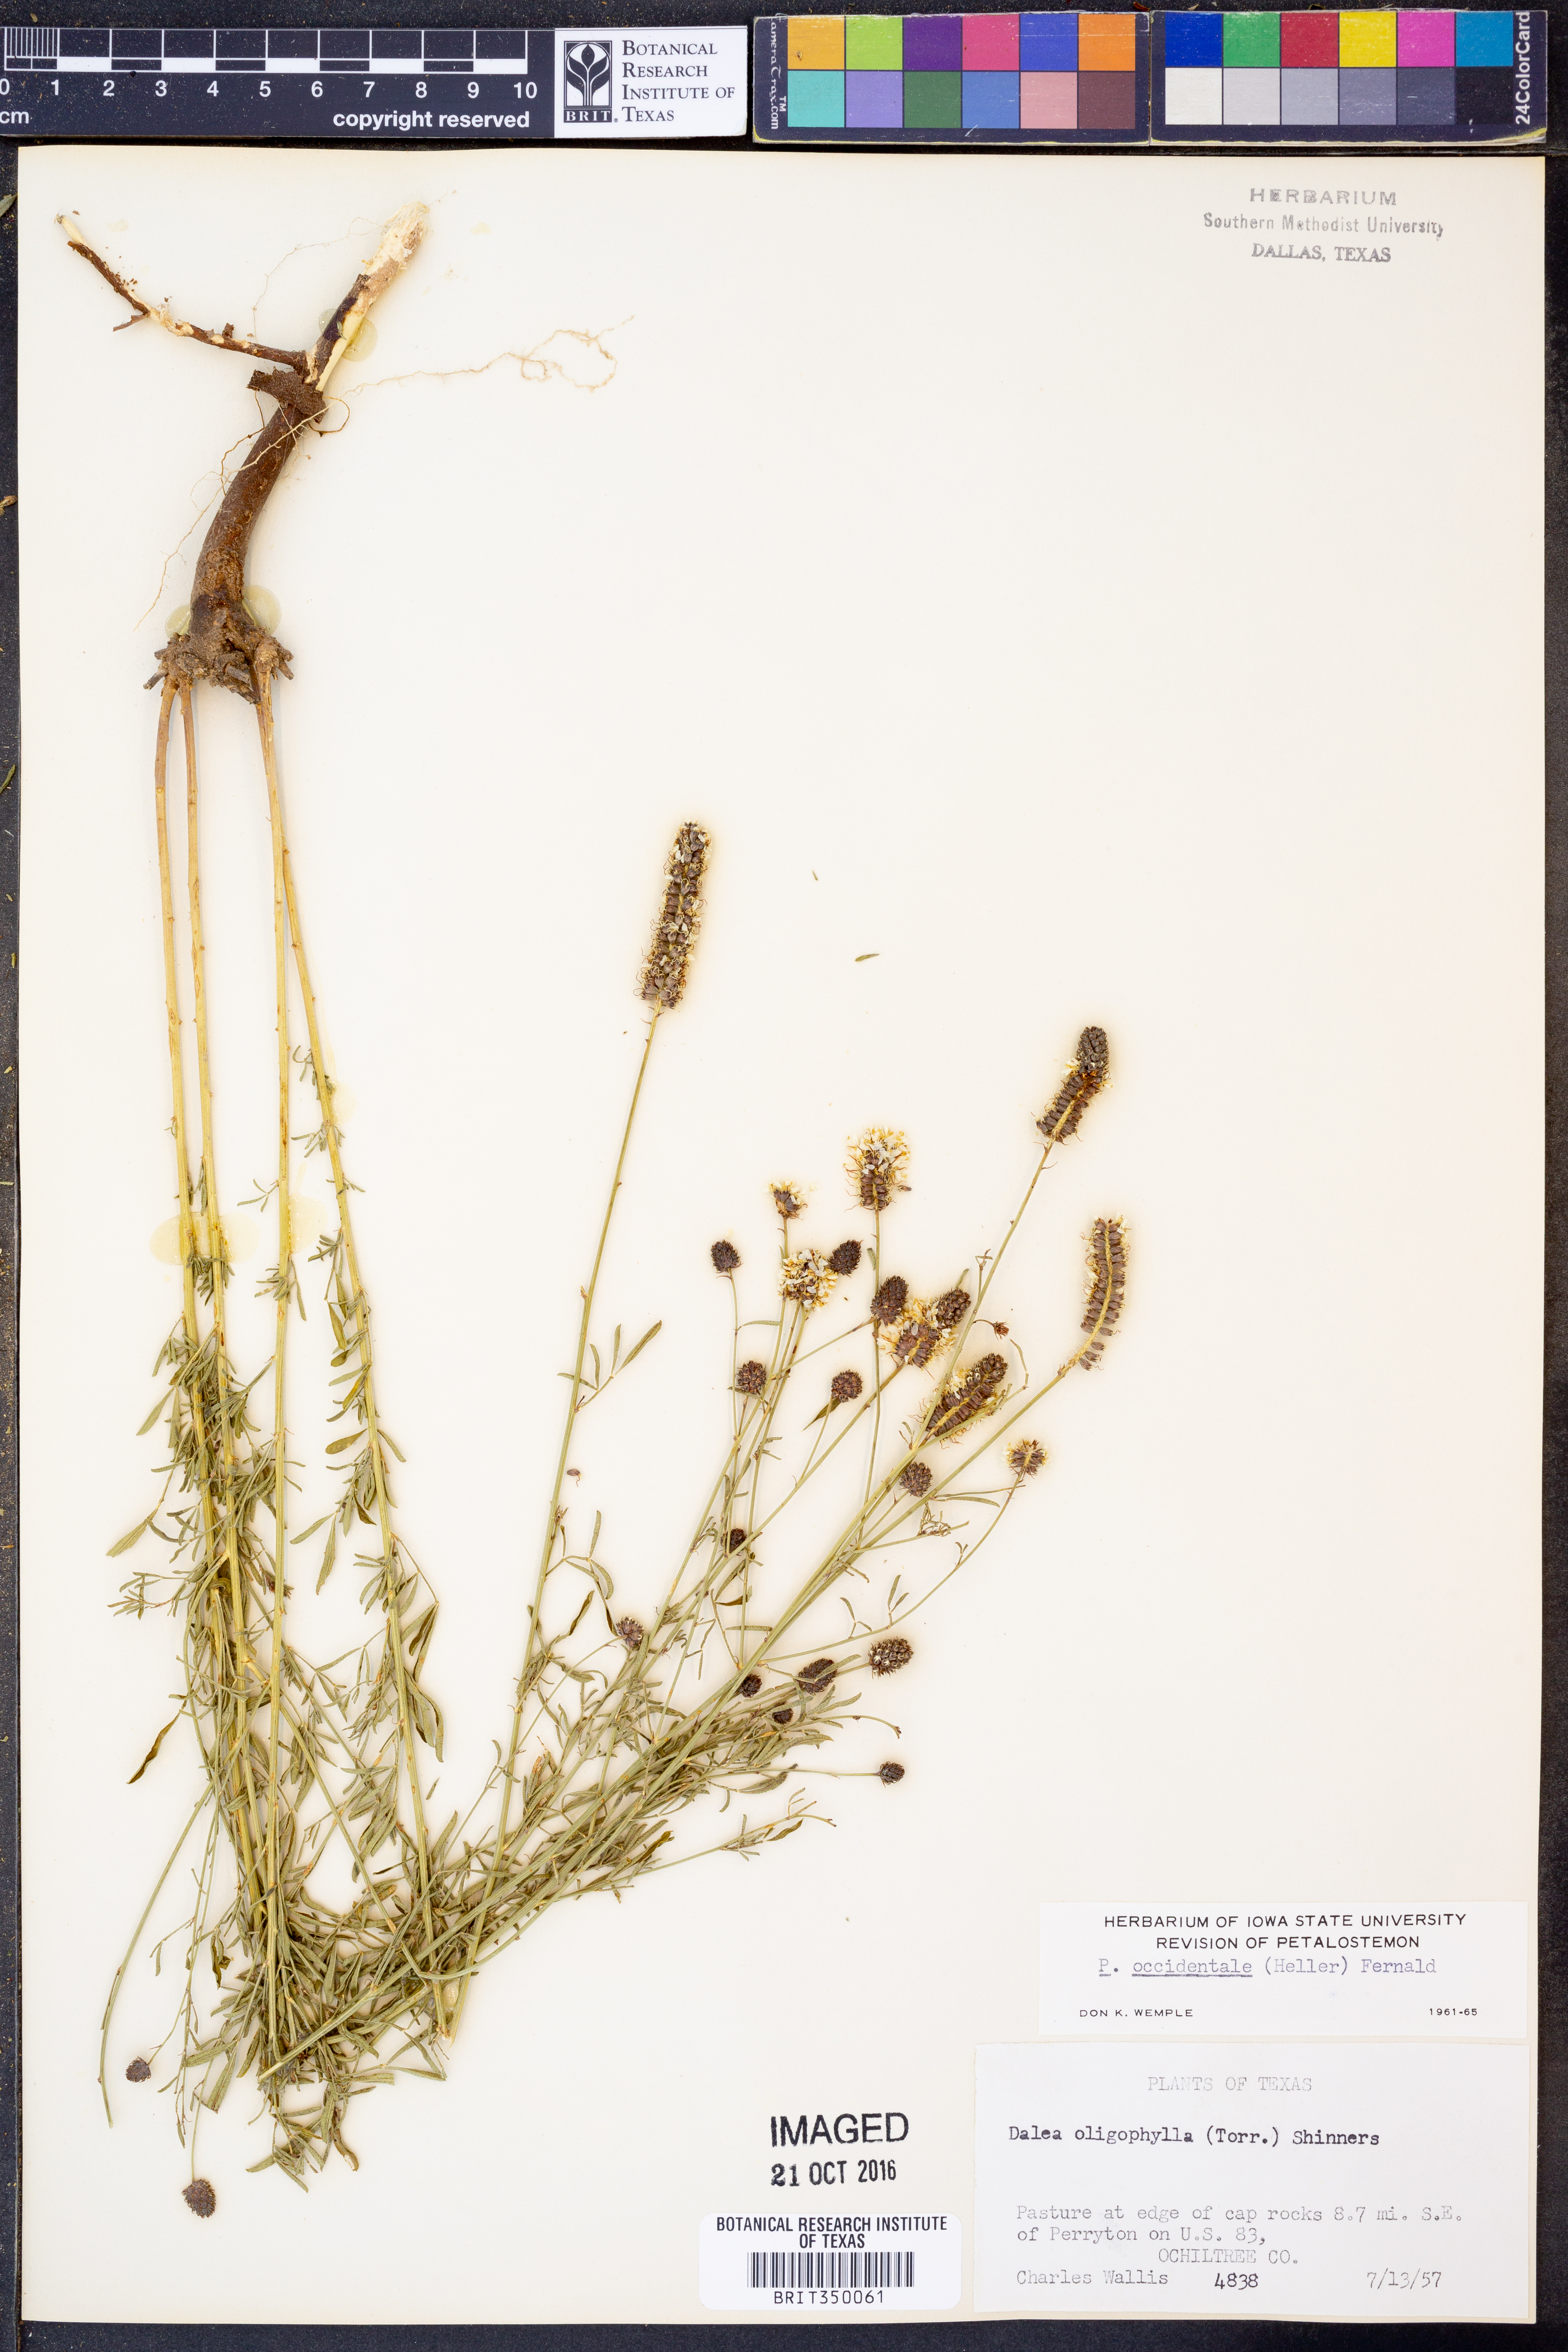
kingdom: Plantae
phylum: Tracheophyta
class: Magnoliopsida
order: Fabales
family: Fabaceae
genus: Dalea
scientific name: Dalea candida
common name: White prairie-clover
